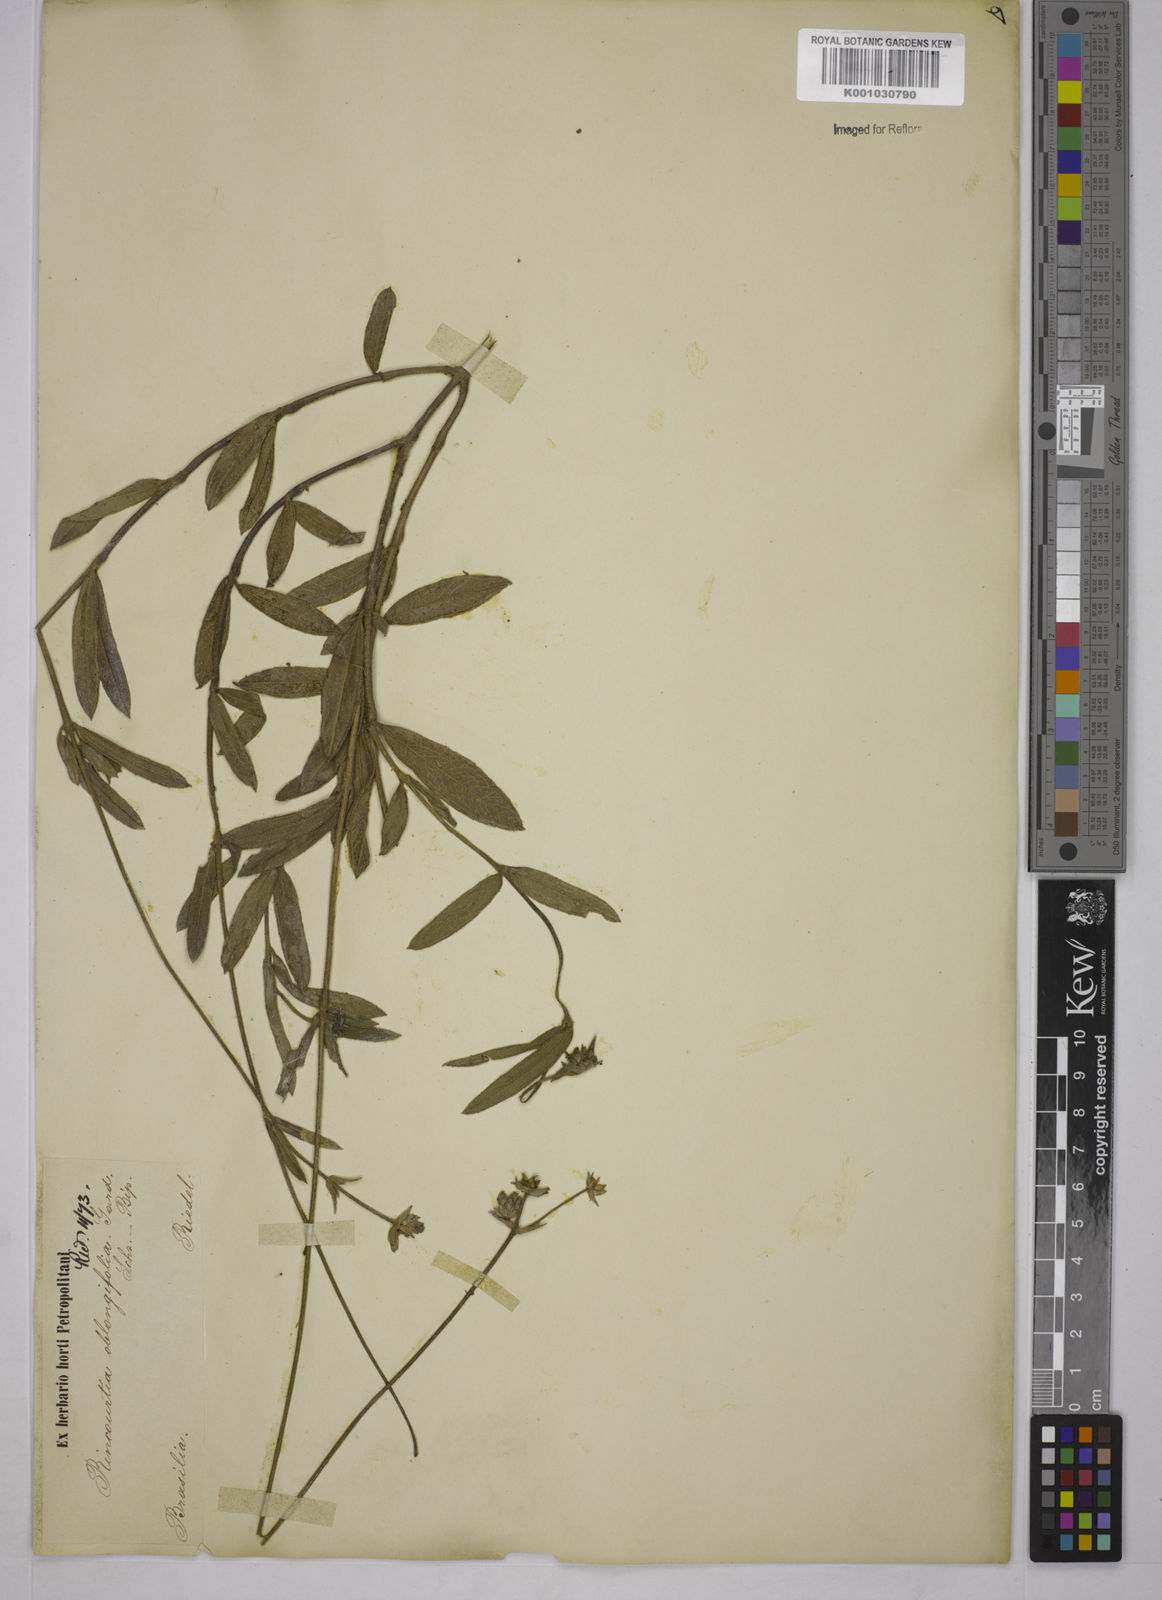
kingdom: Plantae
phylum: Tracheophyta
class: Magnoliopsida
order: Asterales
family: Asteraceae
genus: Riencourtia
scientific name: Riencourtia oblongifolia
